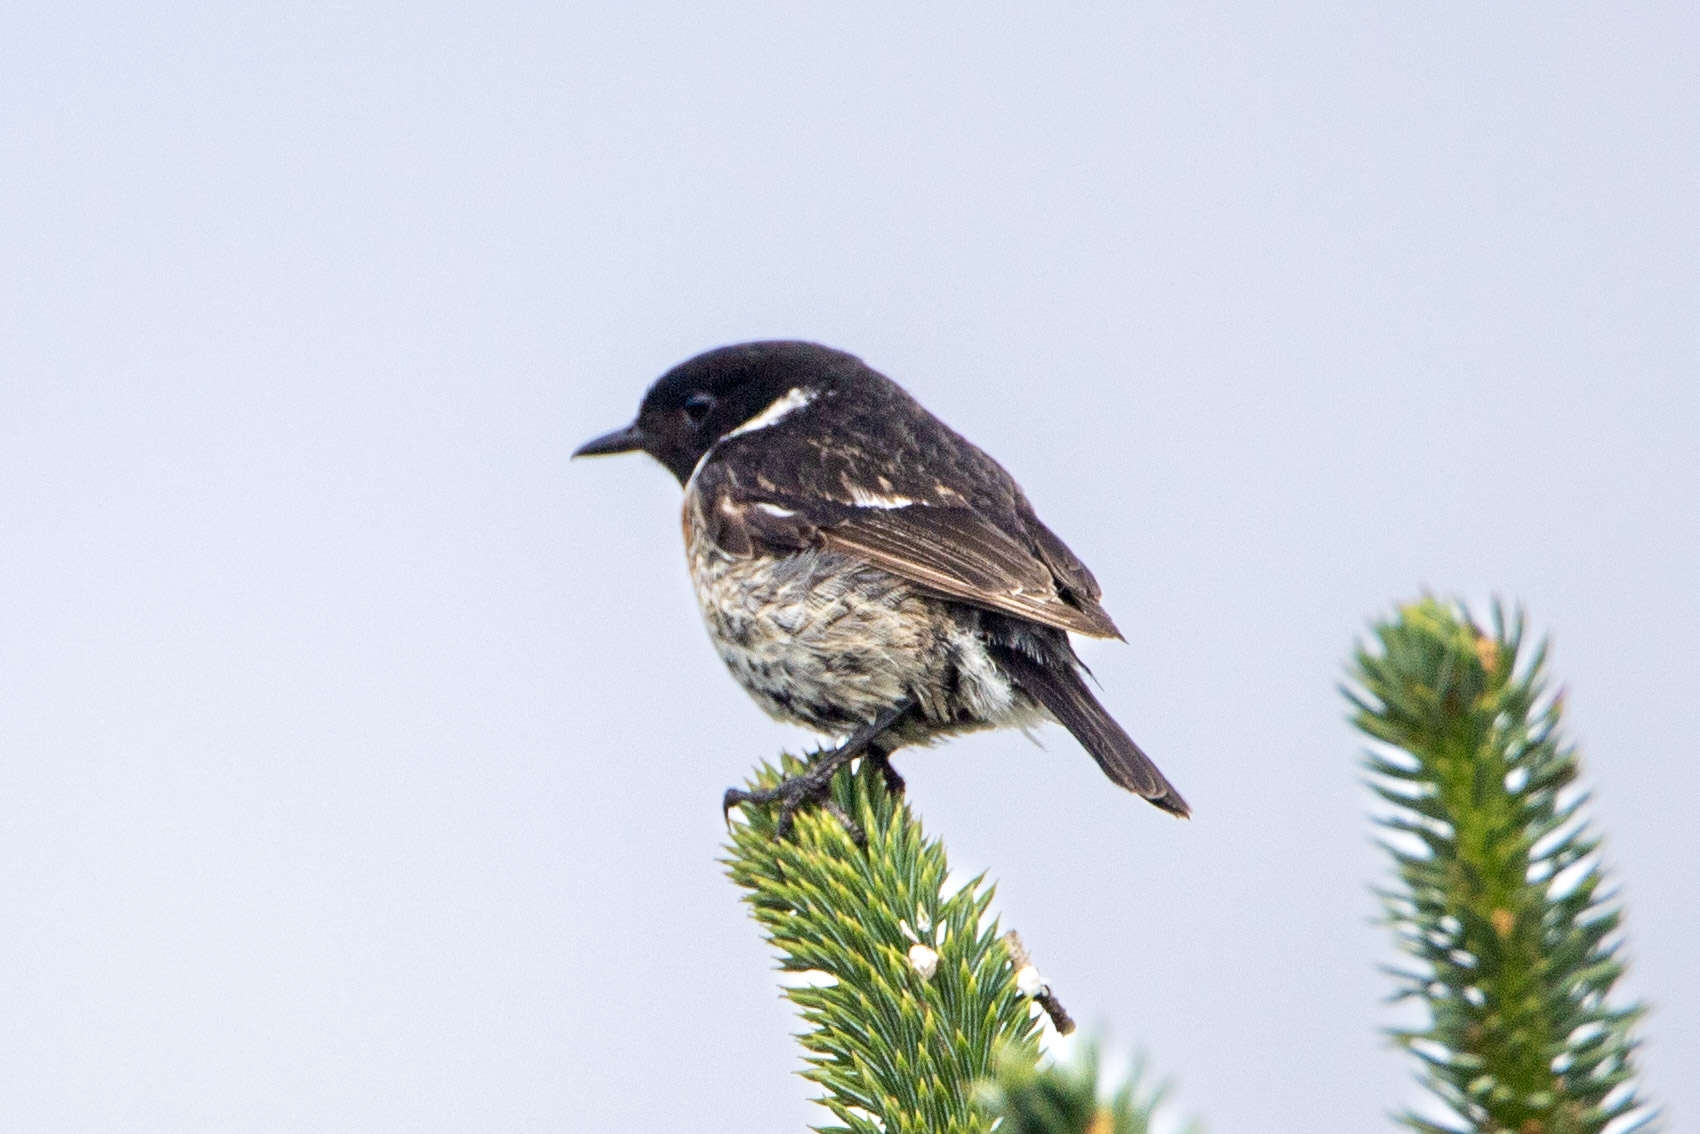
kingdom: Animalia
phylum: Chordata
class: Aves
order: Passeriformes
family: Muscicapidae
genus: Saxicola
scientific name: Saxicola rubicola
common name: Sortstrubet bynkefugl
